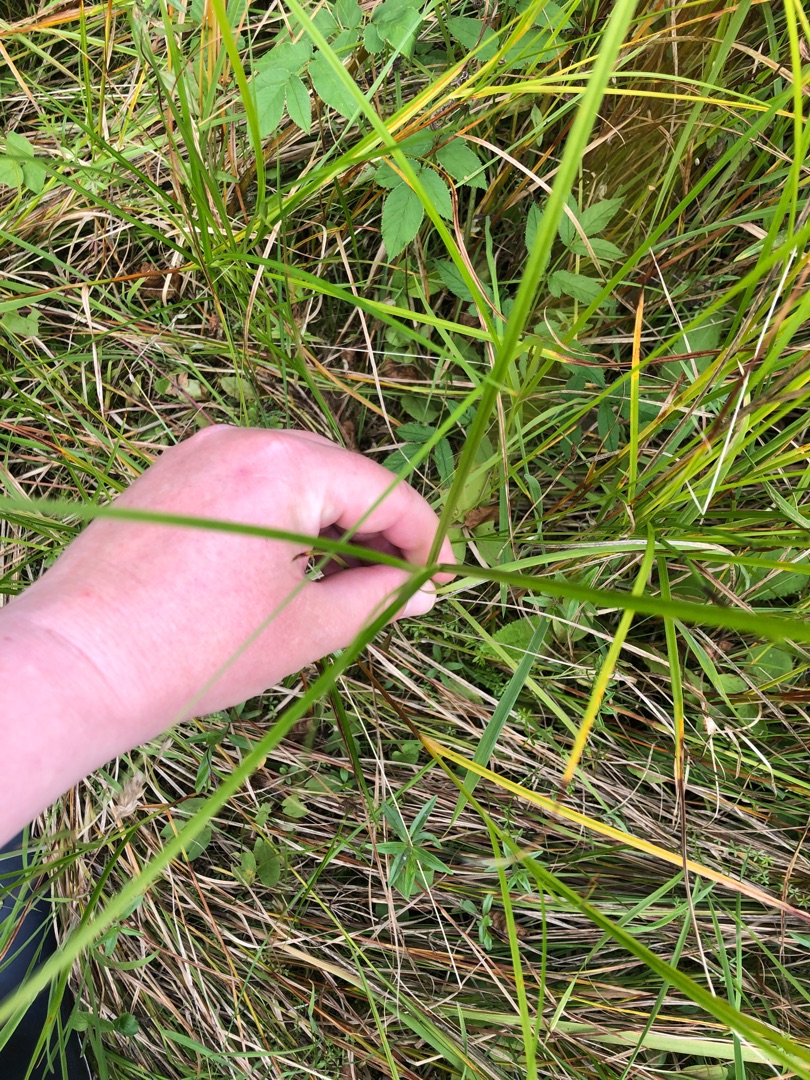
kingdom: Plantae
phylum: Tracheophyta
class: Liliopsida
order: Poales
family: Cyperaceae
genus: Carex
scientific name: Carex disticha
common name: Toradet star
